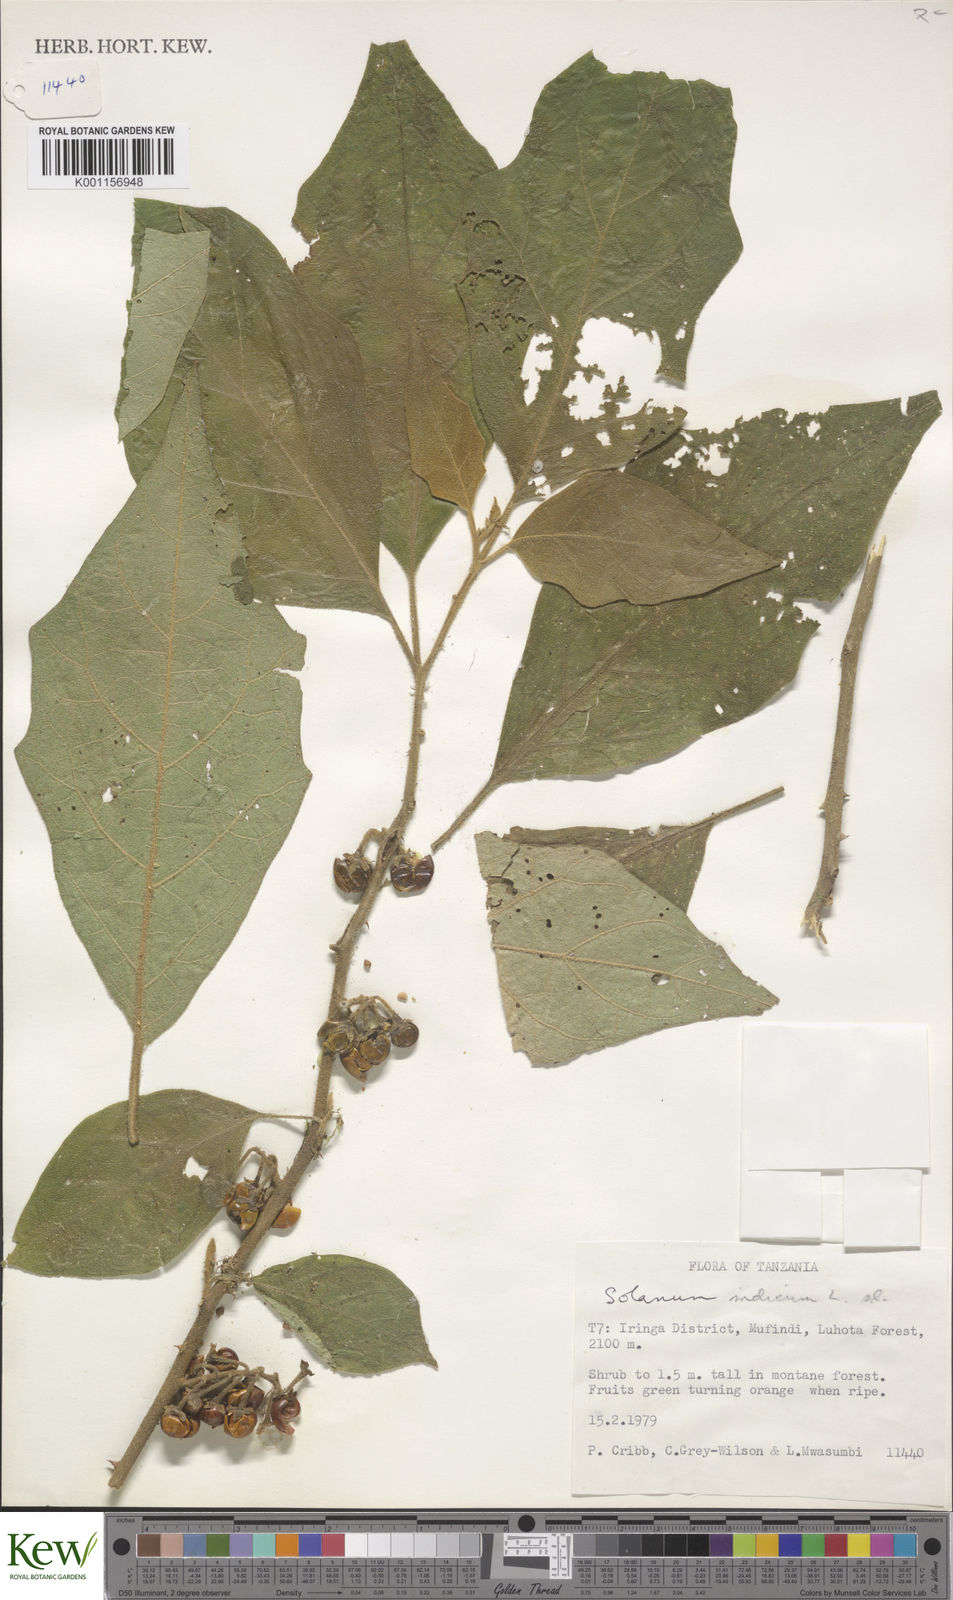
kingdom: Plantae
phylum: Tracheophyta
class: Magnoliopsida
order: Solanales
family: Solanaceae
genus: Solanum
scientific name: Solanum anguivi
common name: Forest bitterberry
